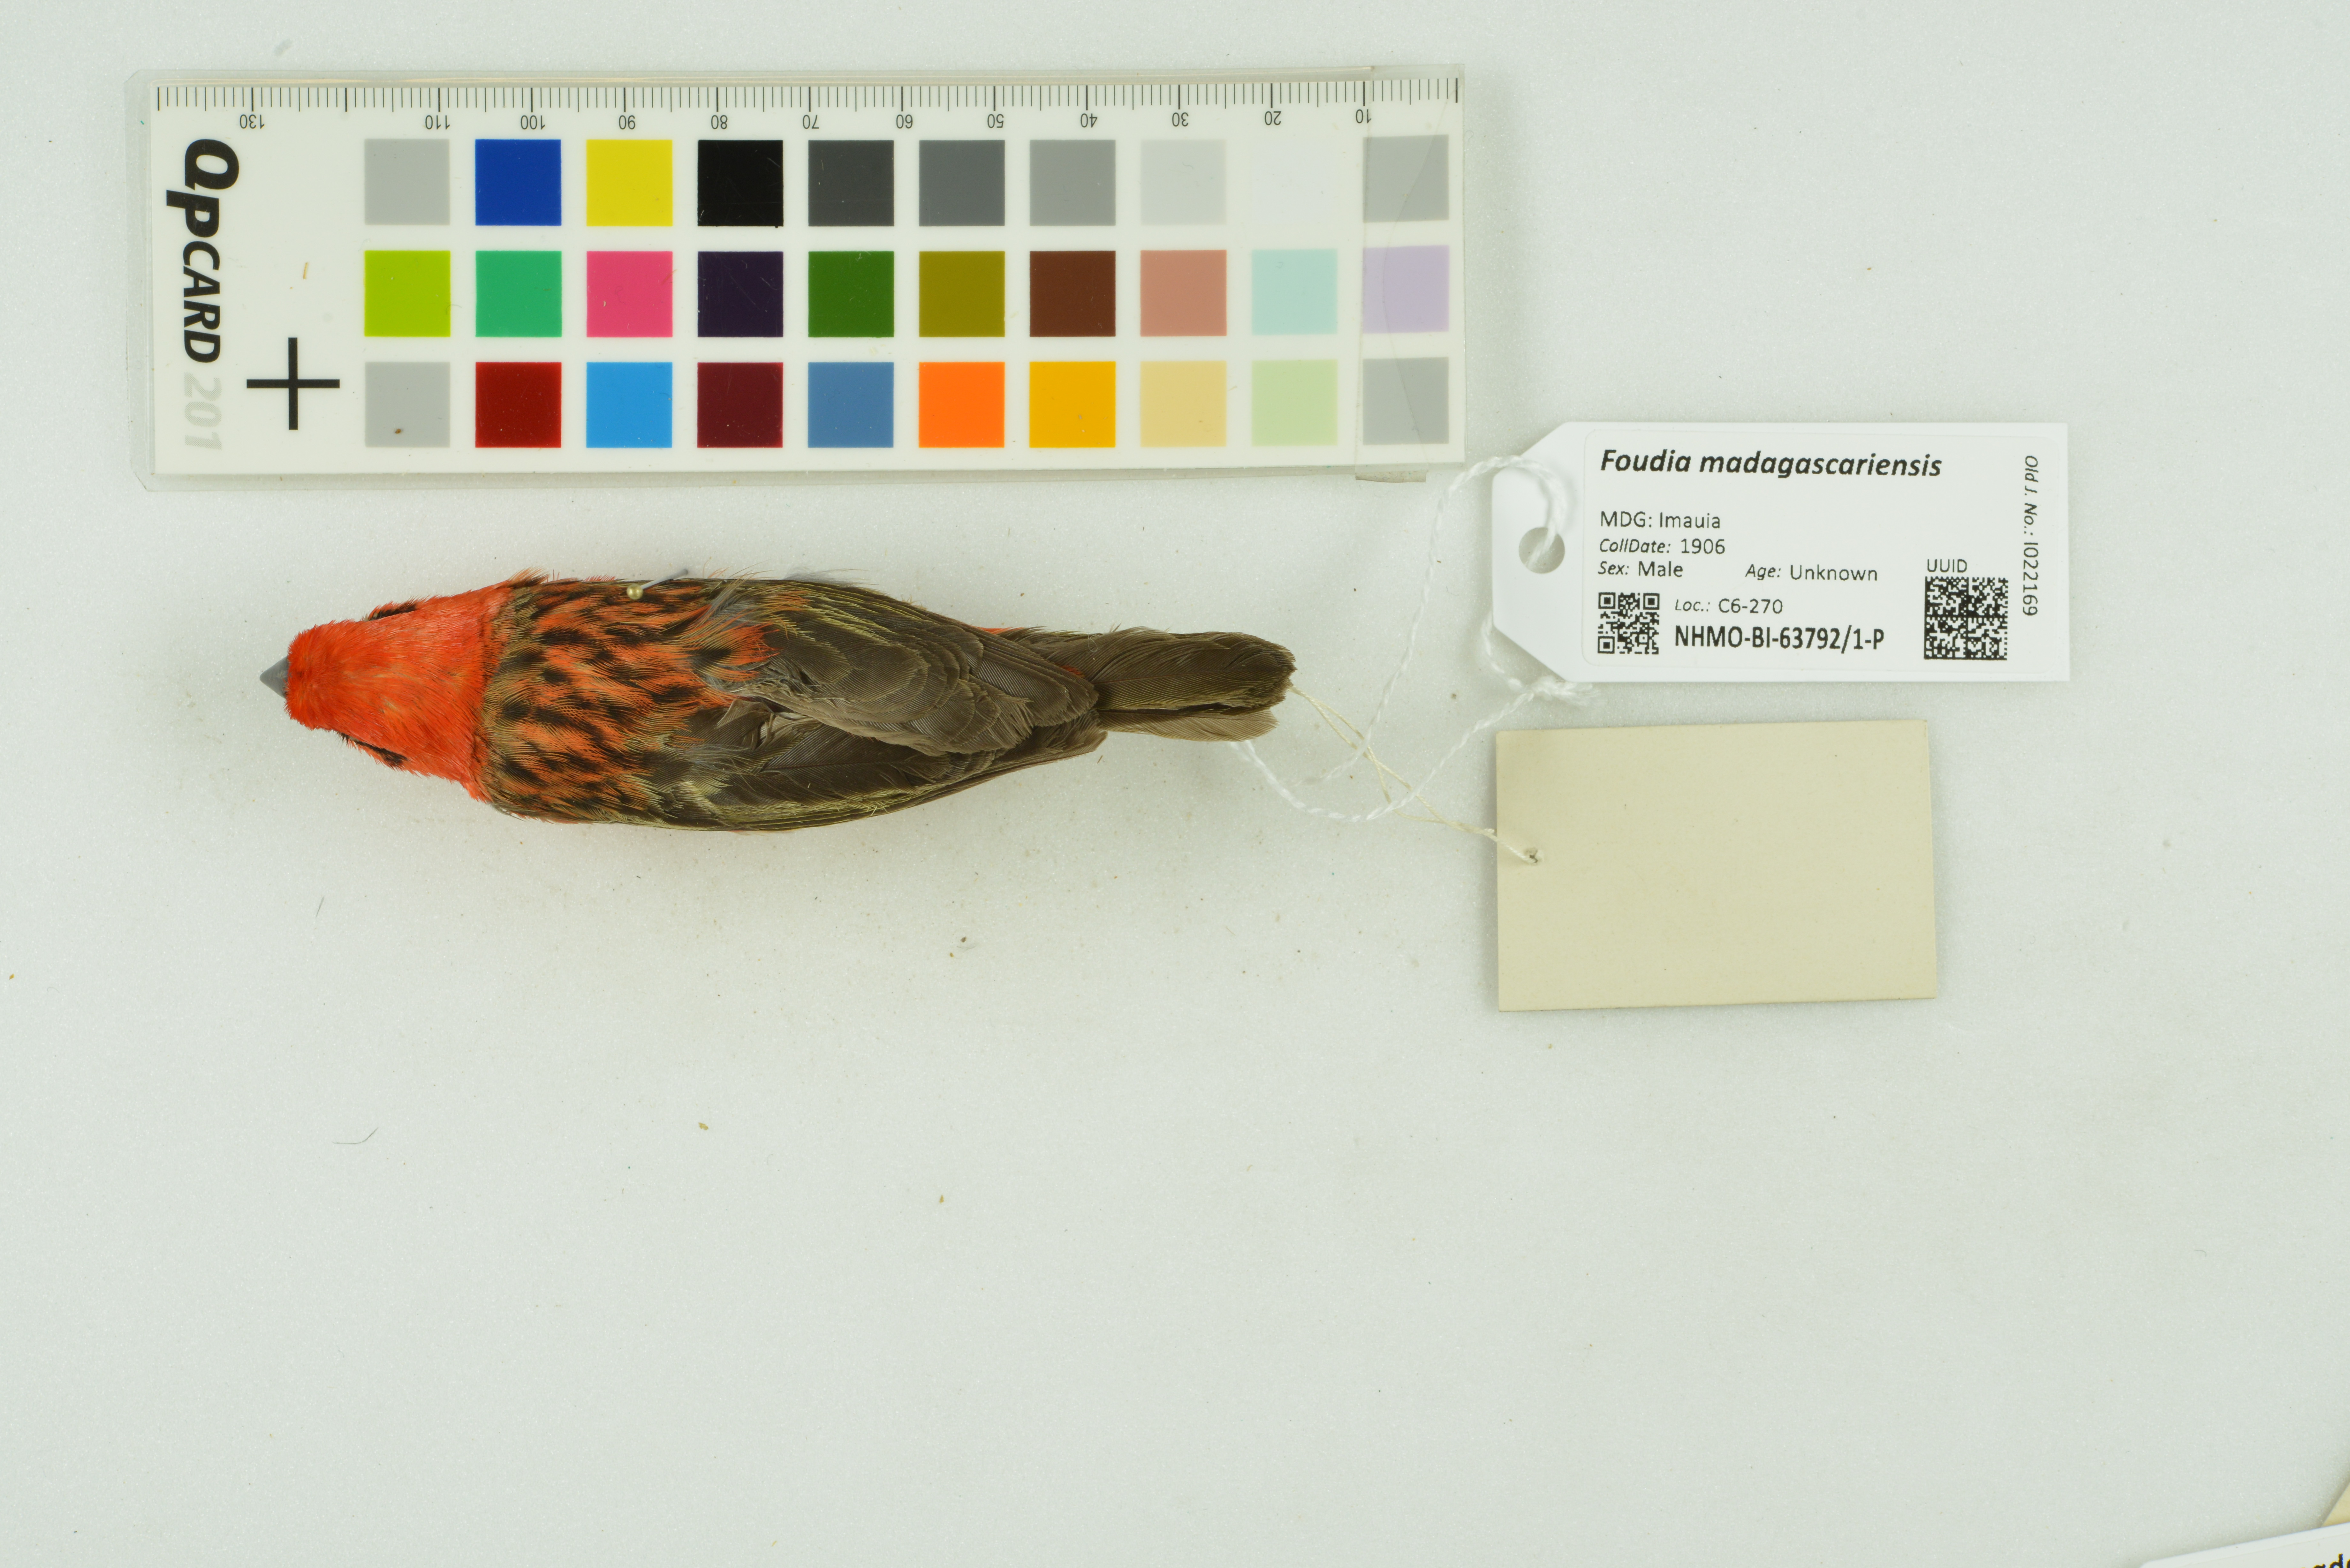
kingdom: Animalia
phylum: Chordata
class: Aves
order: Passeriformes
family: Ploceidae
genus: Foudia
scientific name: Foudia madagascariensis
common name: Red fody
